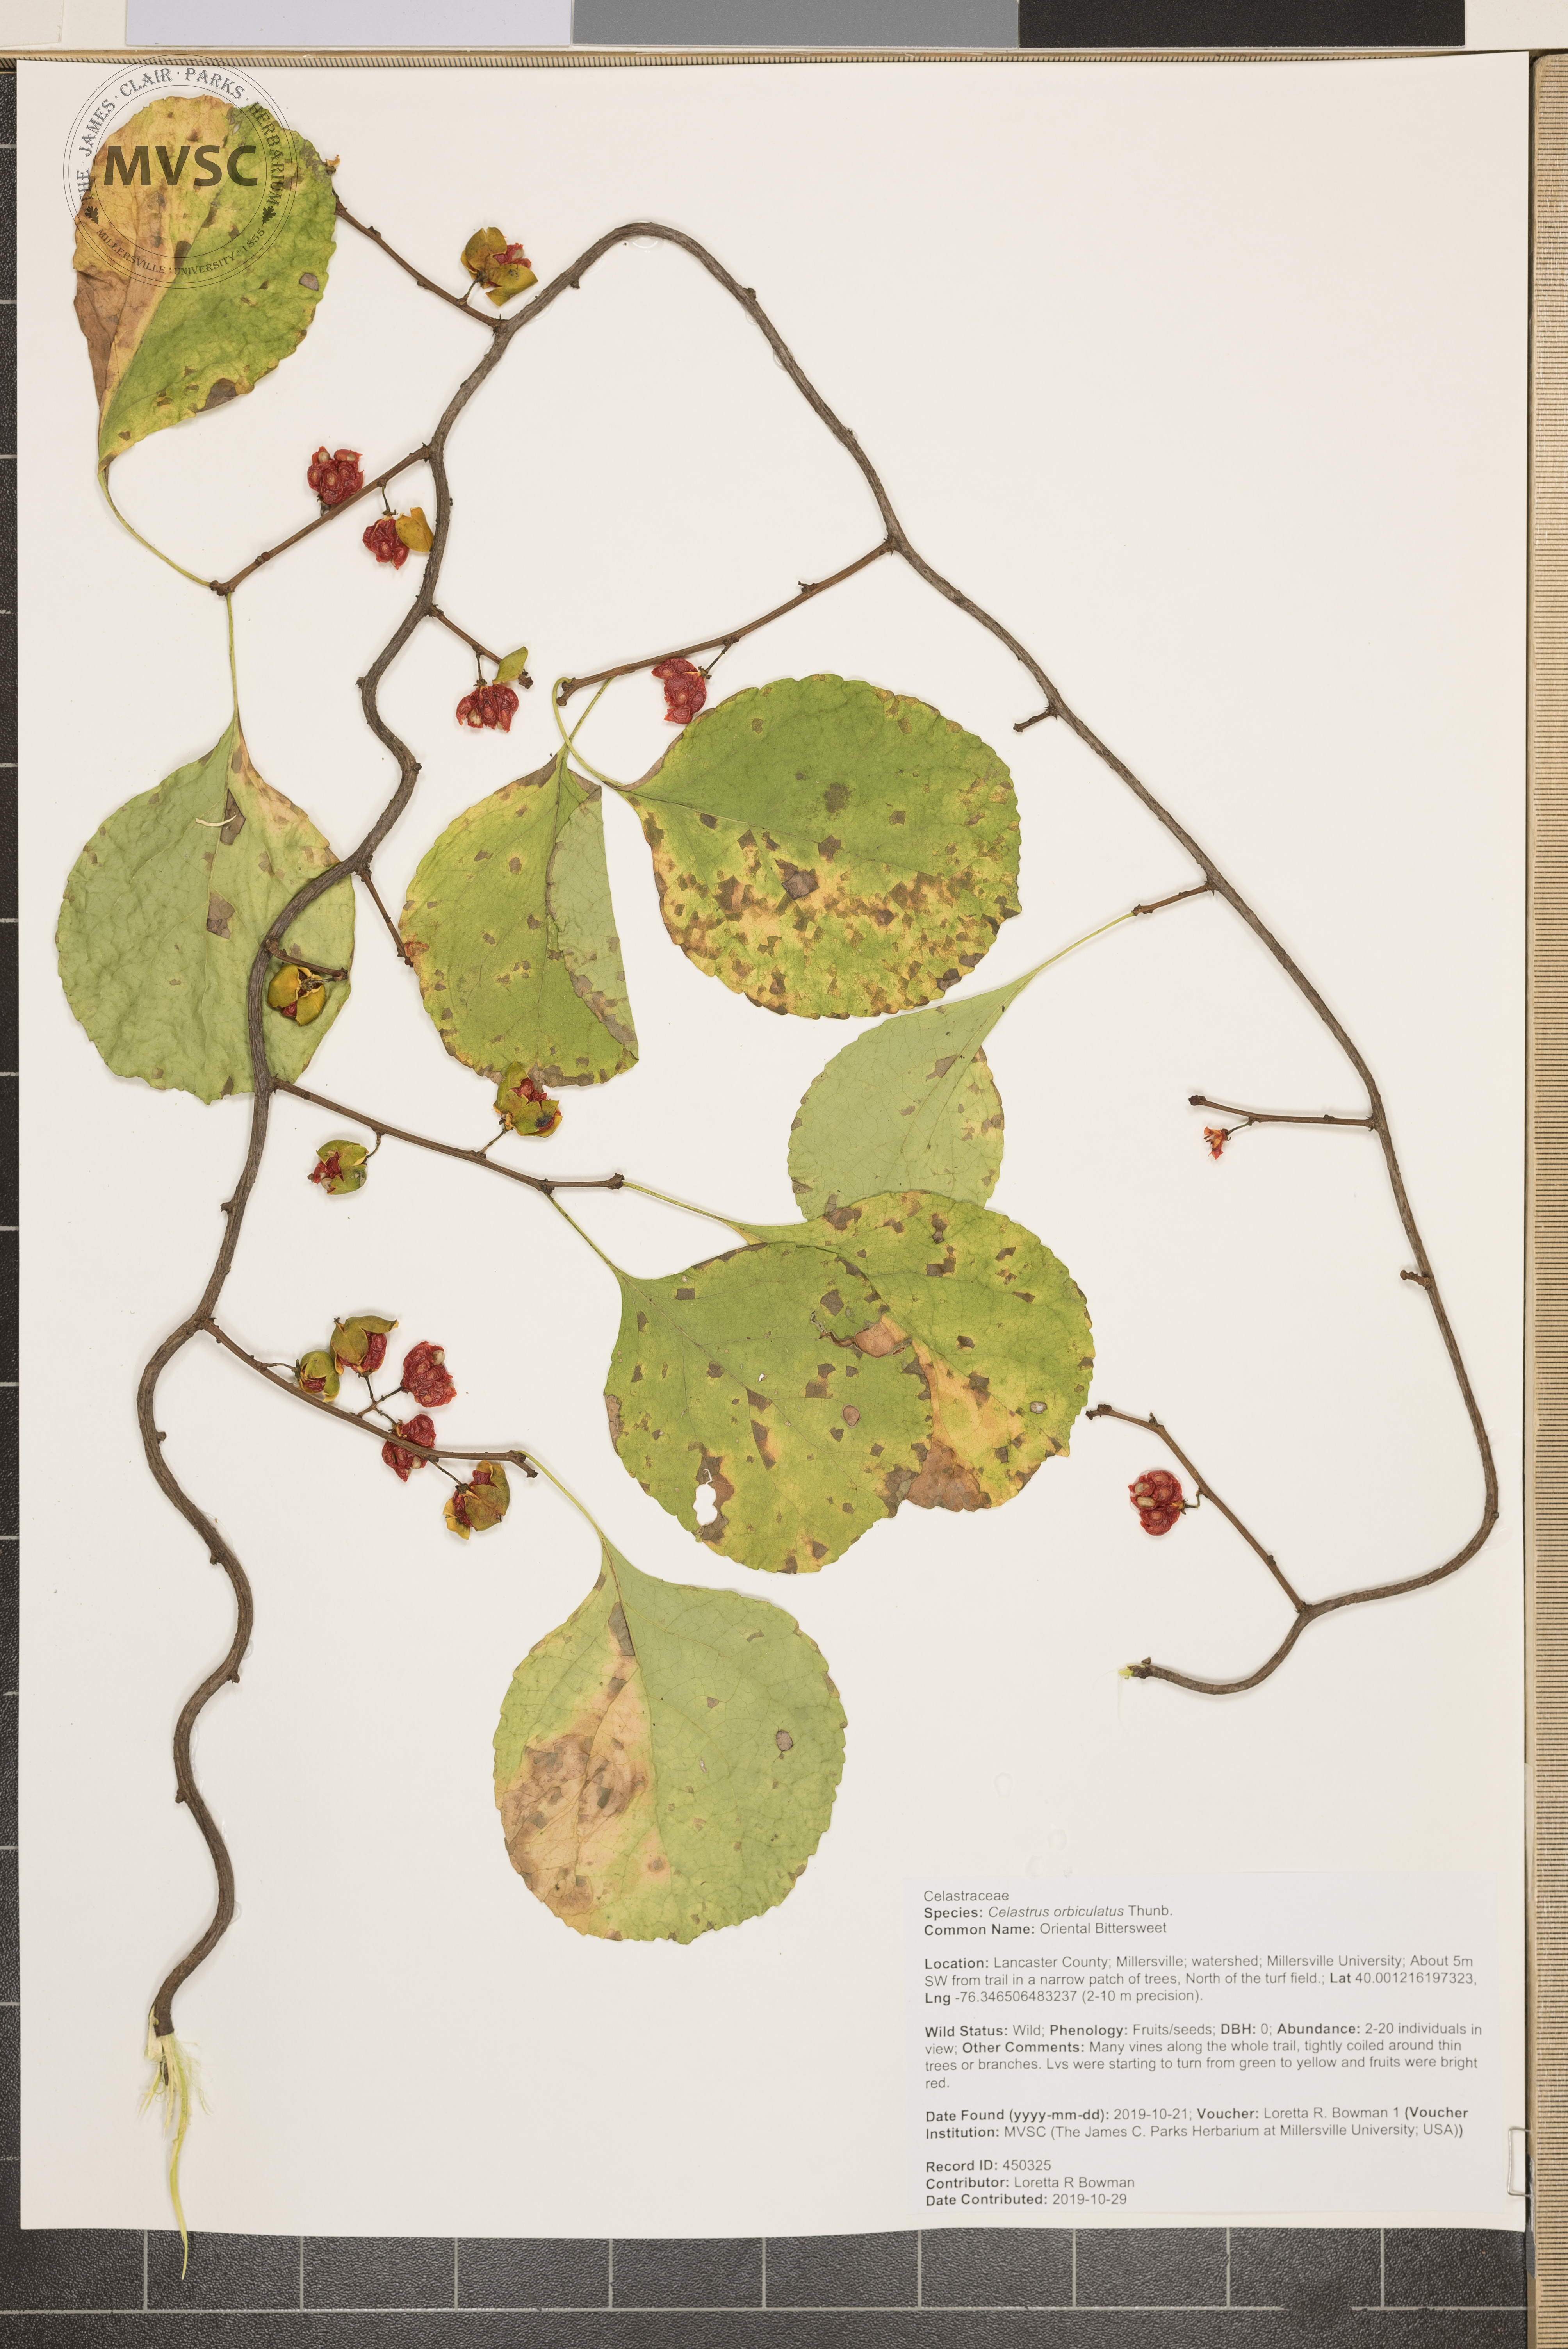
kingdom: Plantae
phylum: Tracheophyta
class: Magnoliopsida
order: Celastrales
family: Celastraceae
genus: Celastrus
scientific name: Celastrus orbiculatus
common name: Oriental Bittersweet
